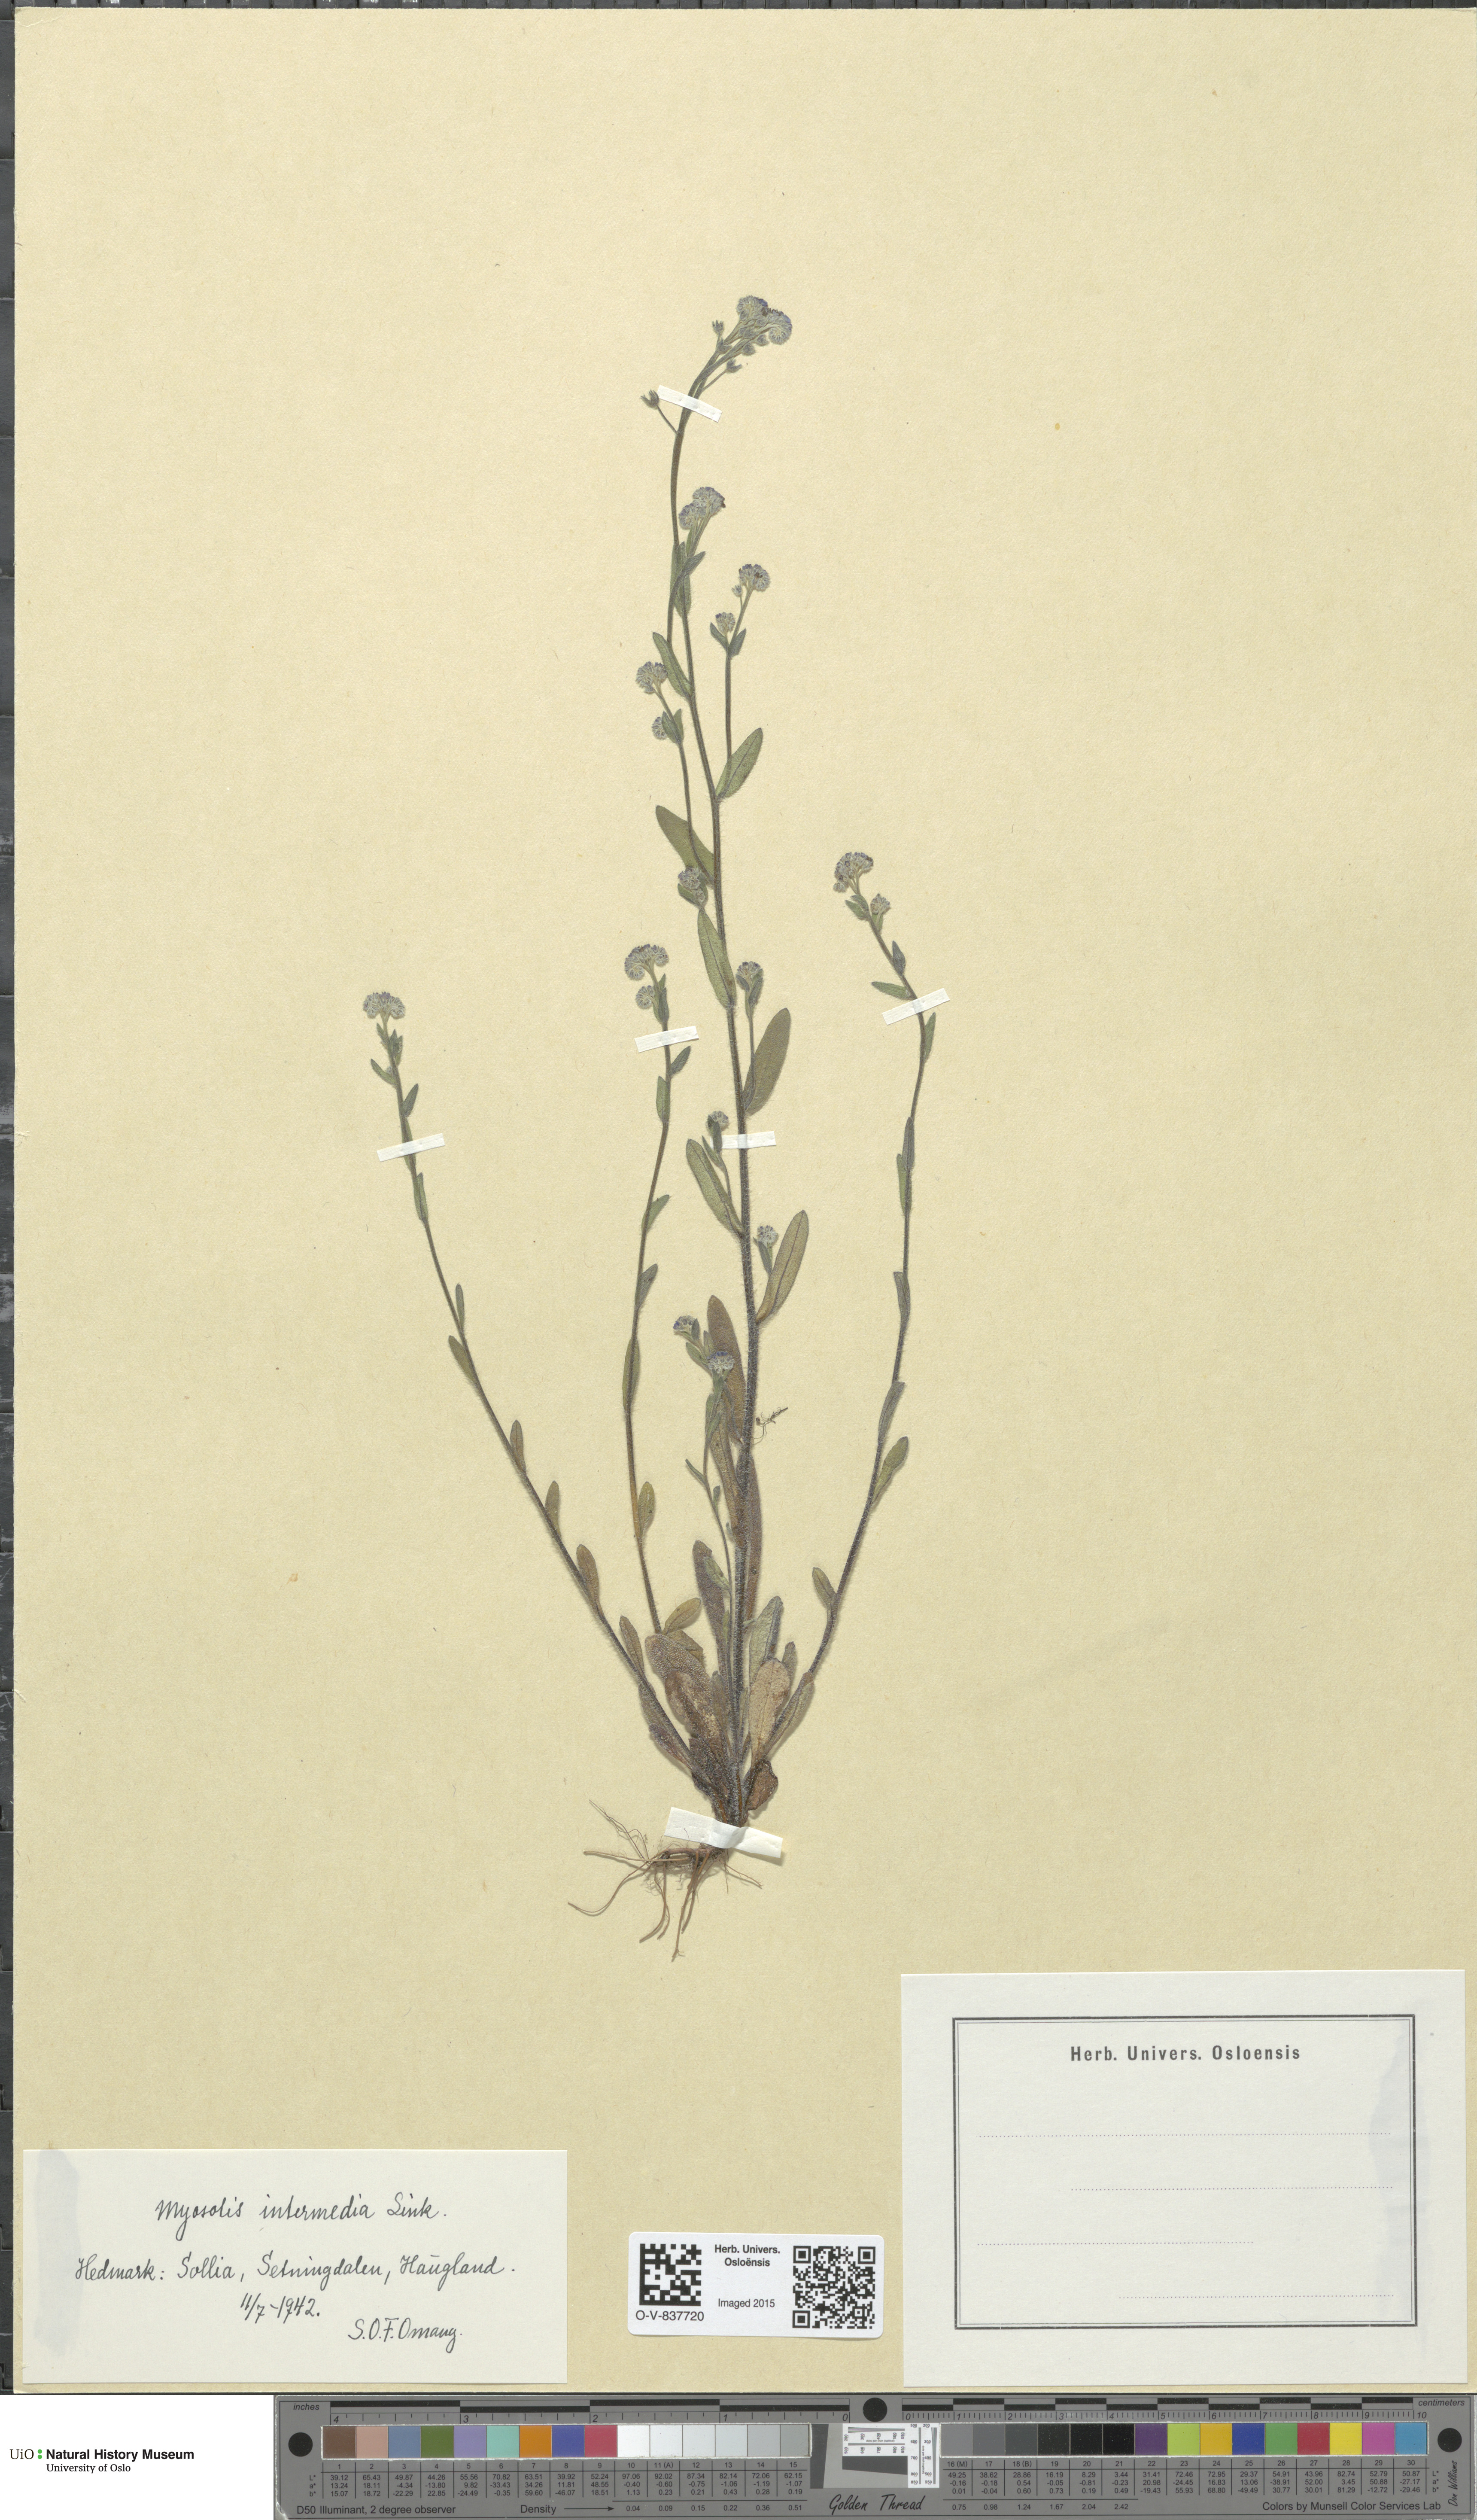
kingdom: Plantae
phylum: Tracheophyta
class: Magnoliopsida
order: Boraginales
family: Boraginaceae
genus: Myosotis
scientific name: Myosotis arvensis
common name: Field forget-me-not
